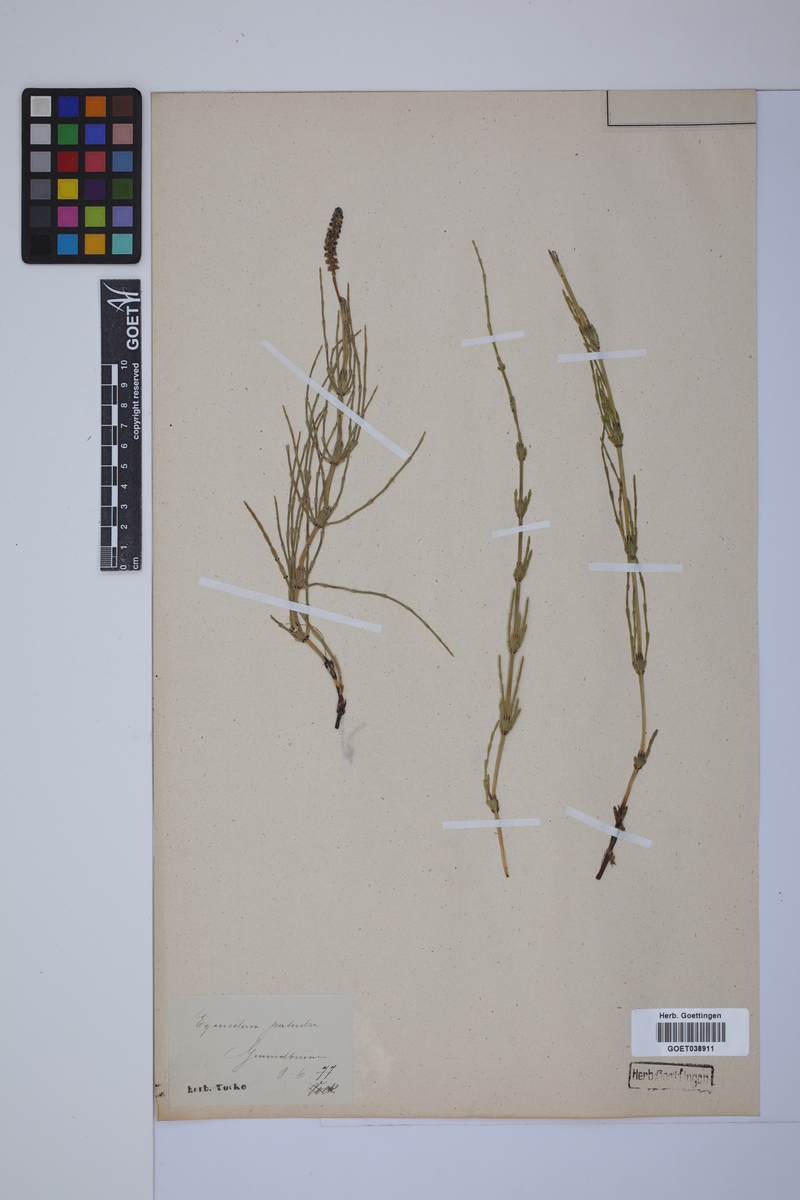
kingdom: Plantae
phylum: Tracheophyta
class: Polypodiopsida
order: Equisetales
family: Equisetaceae
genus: Equisetum
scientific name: Equisetum palustre
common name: Marsh horsetail
